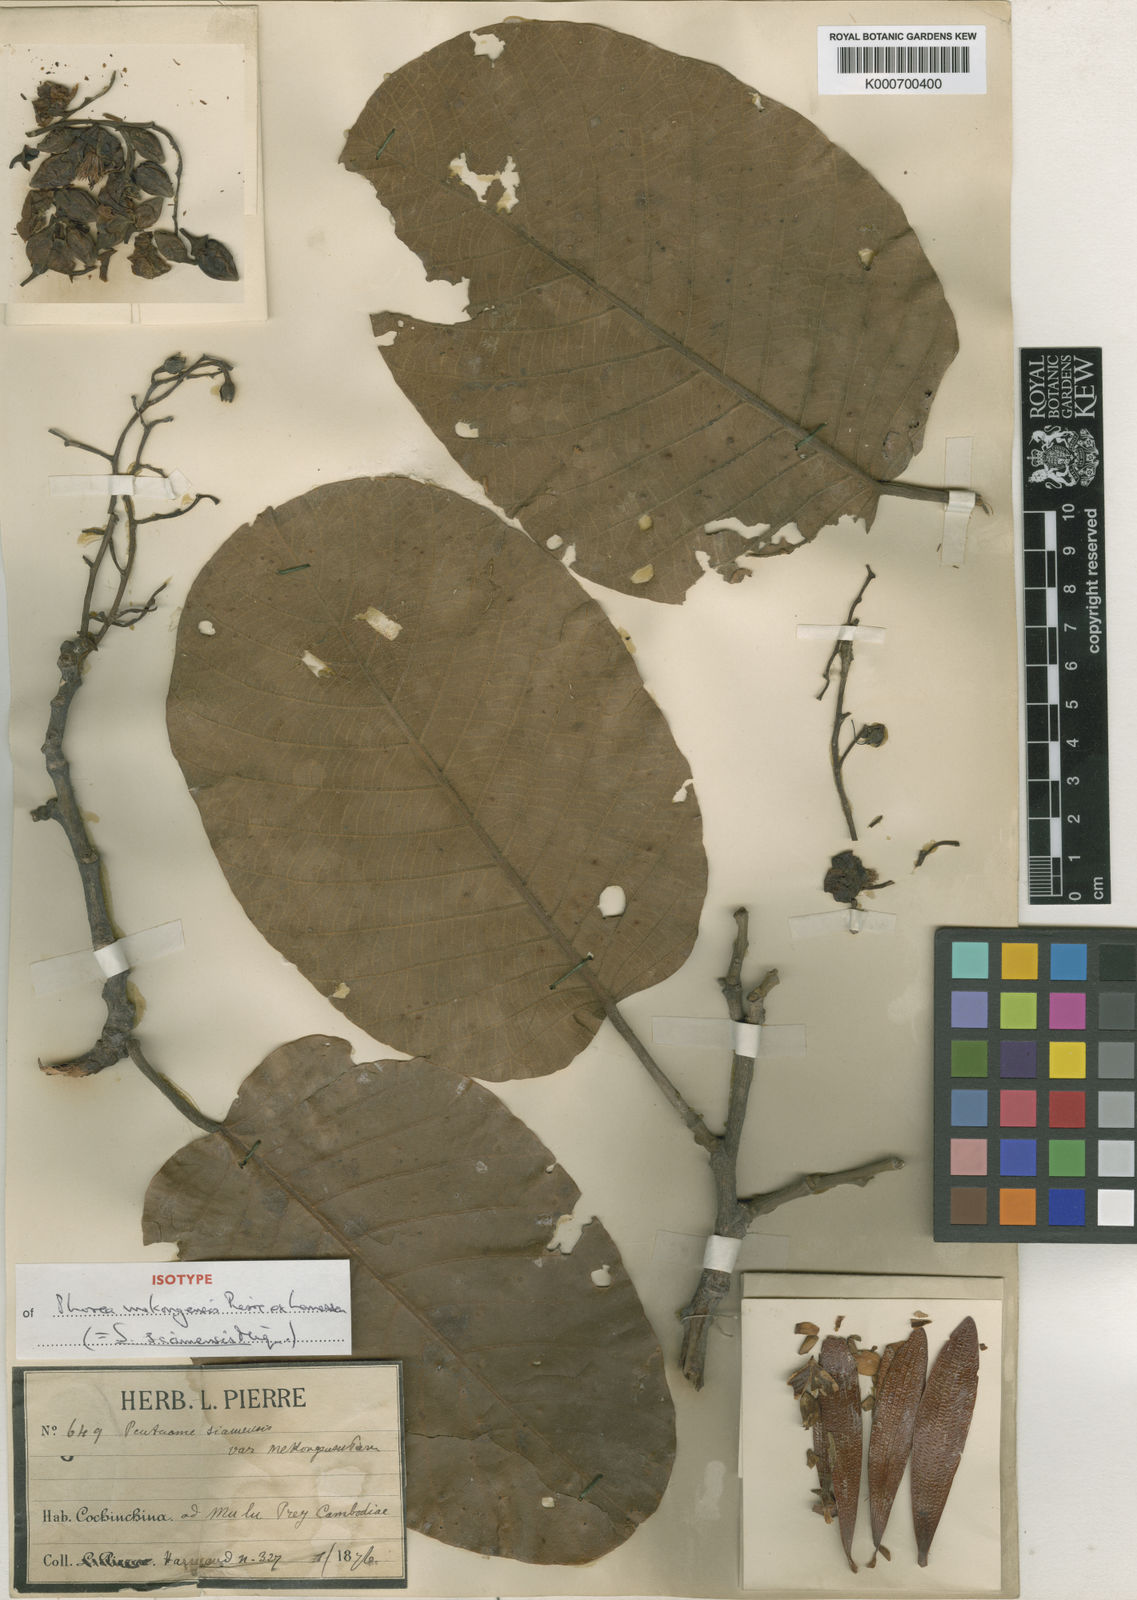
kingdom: Plantae
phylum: Tracheophyta
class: Magnoliopsida
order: Malvales
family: Dipterocarpaceae
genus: Pentacme
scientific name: Pentacme siamensis
